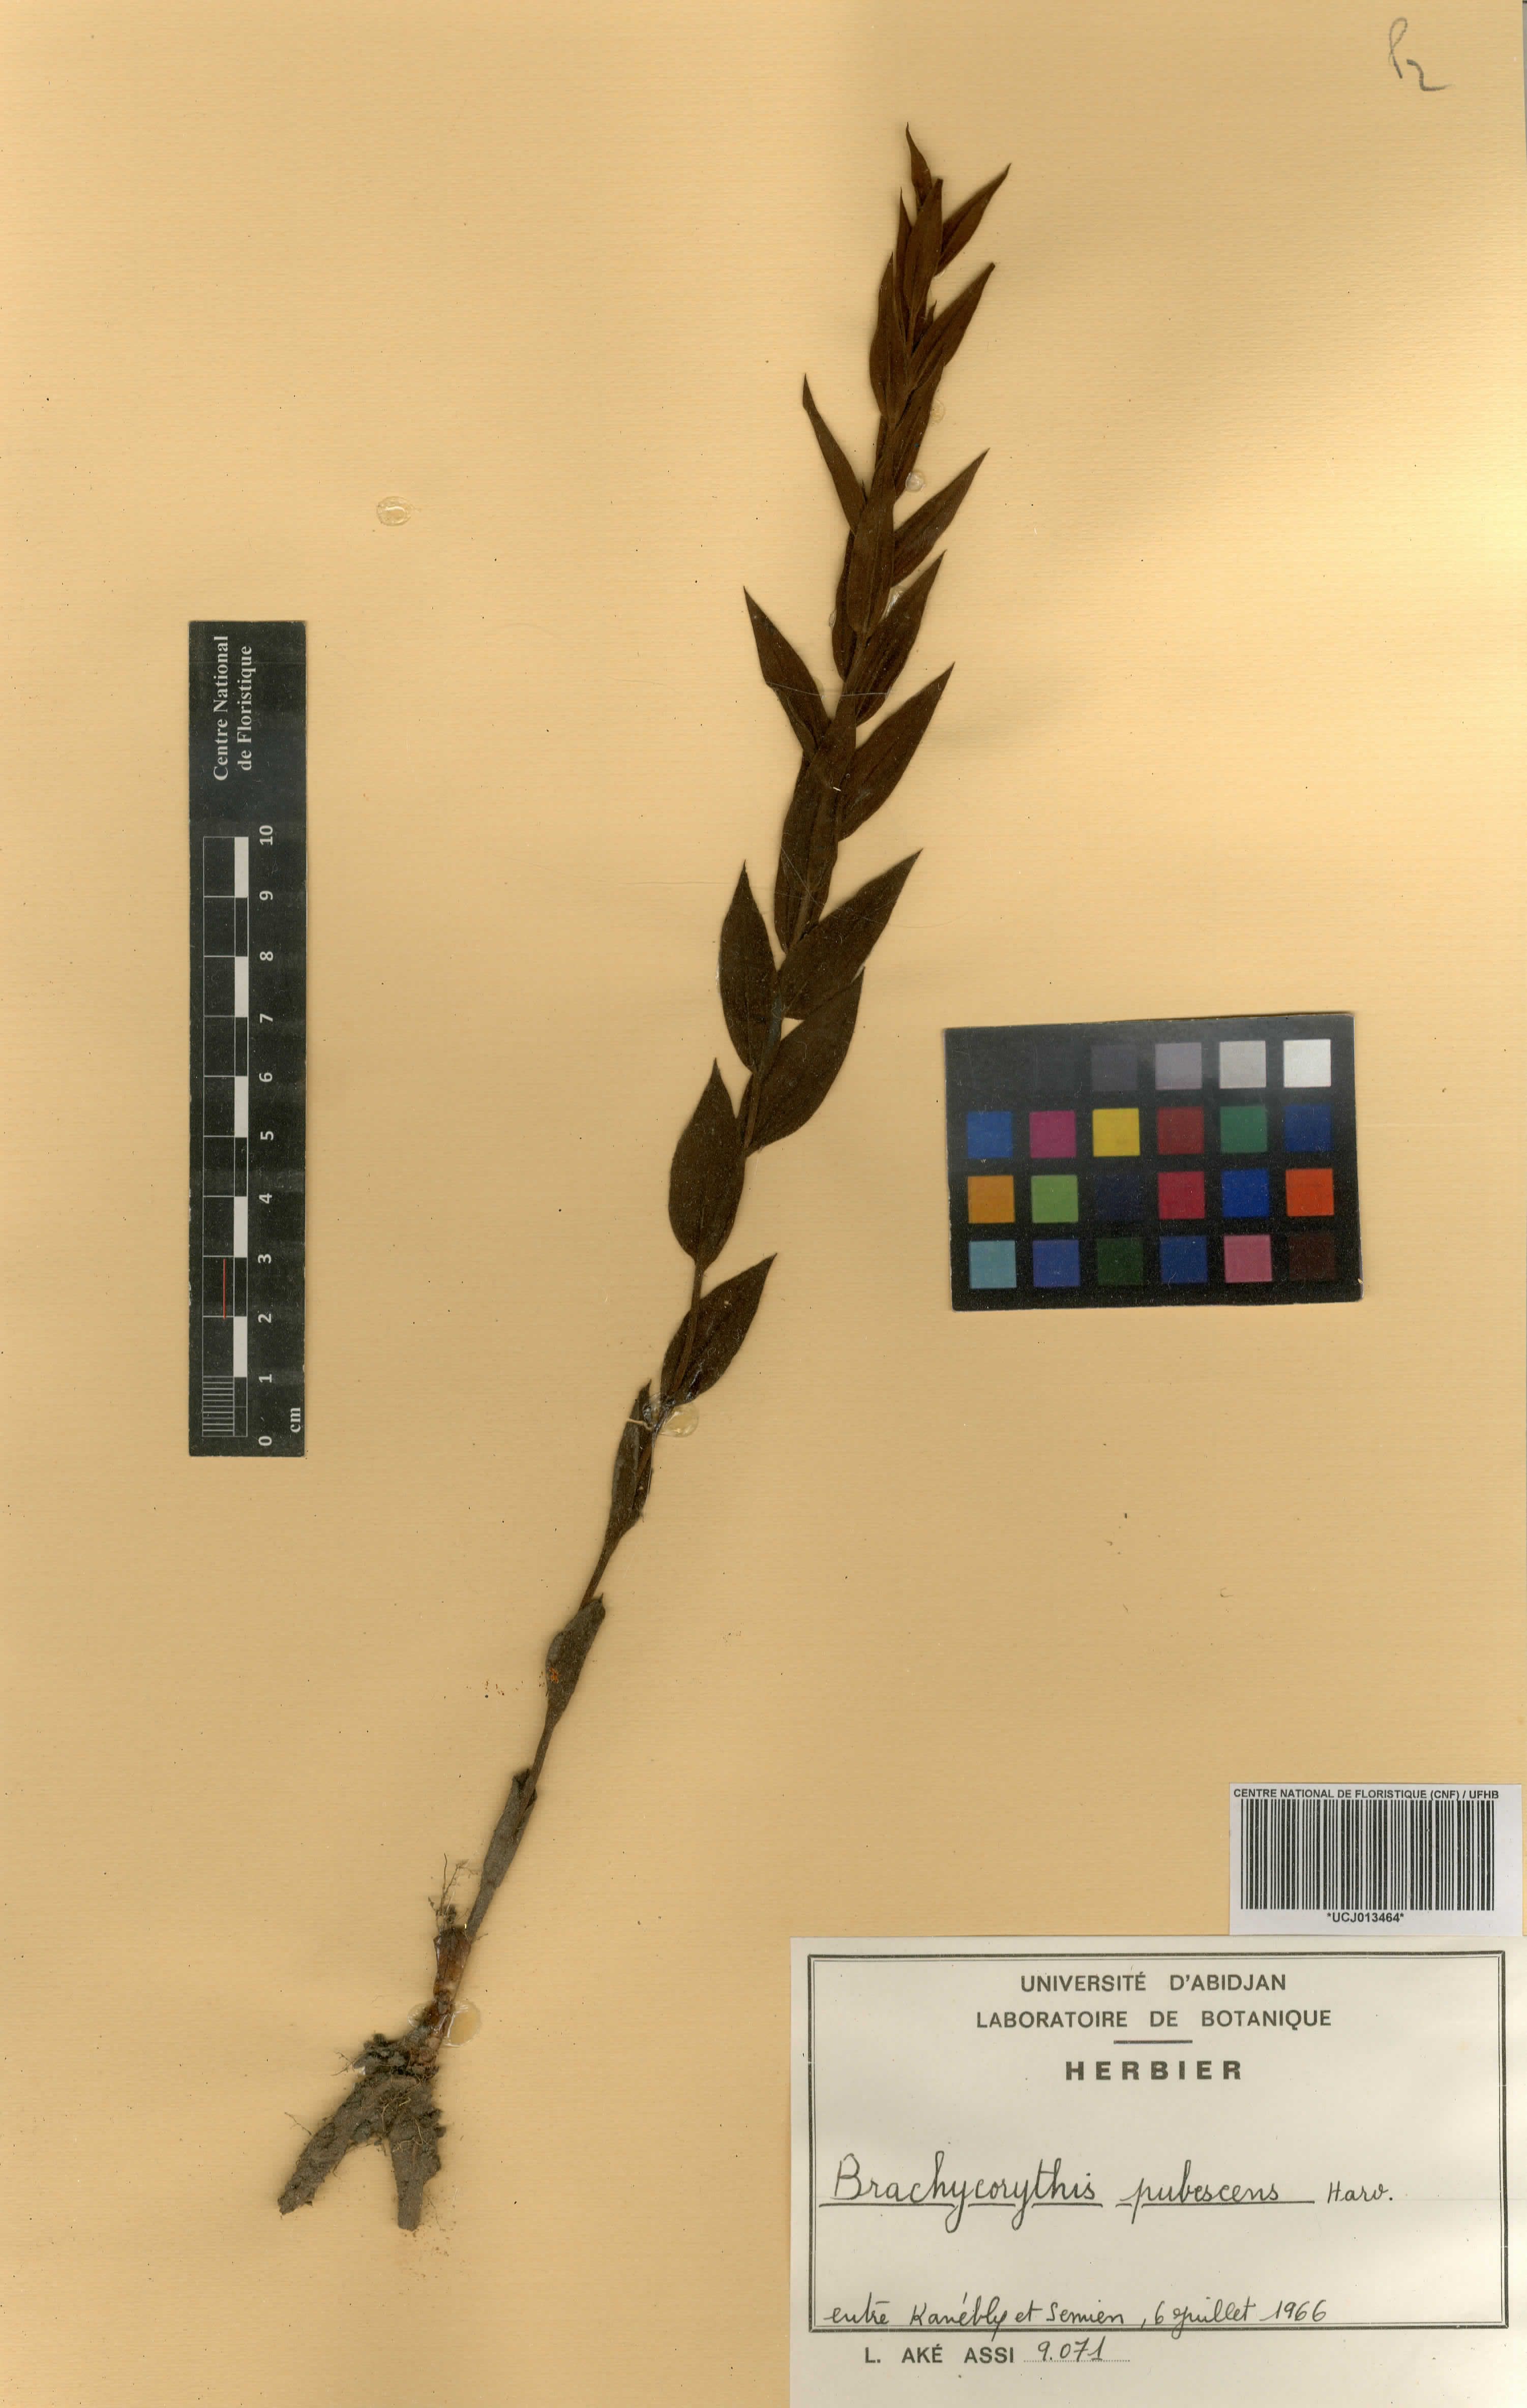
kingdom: Plantae
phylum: Tracheophyta
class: Liliopsida
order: Asparagales
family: Orchidaceae
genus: Brachycorythis
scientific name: Brachycorythis pubescens
